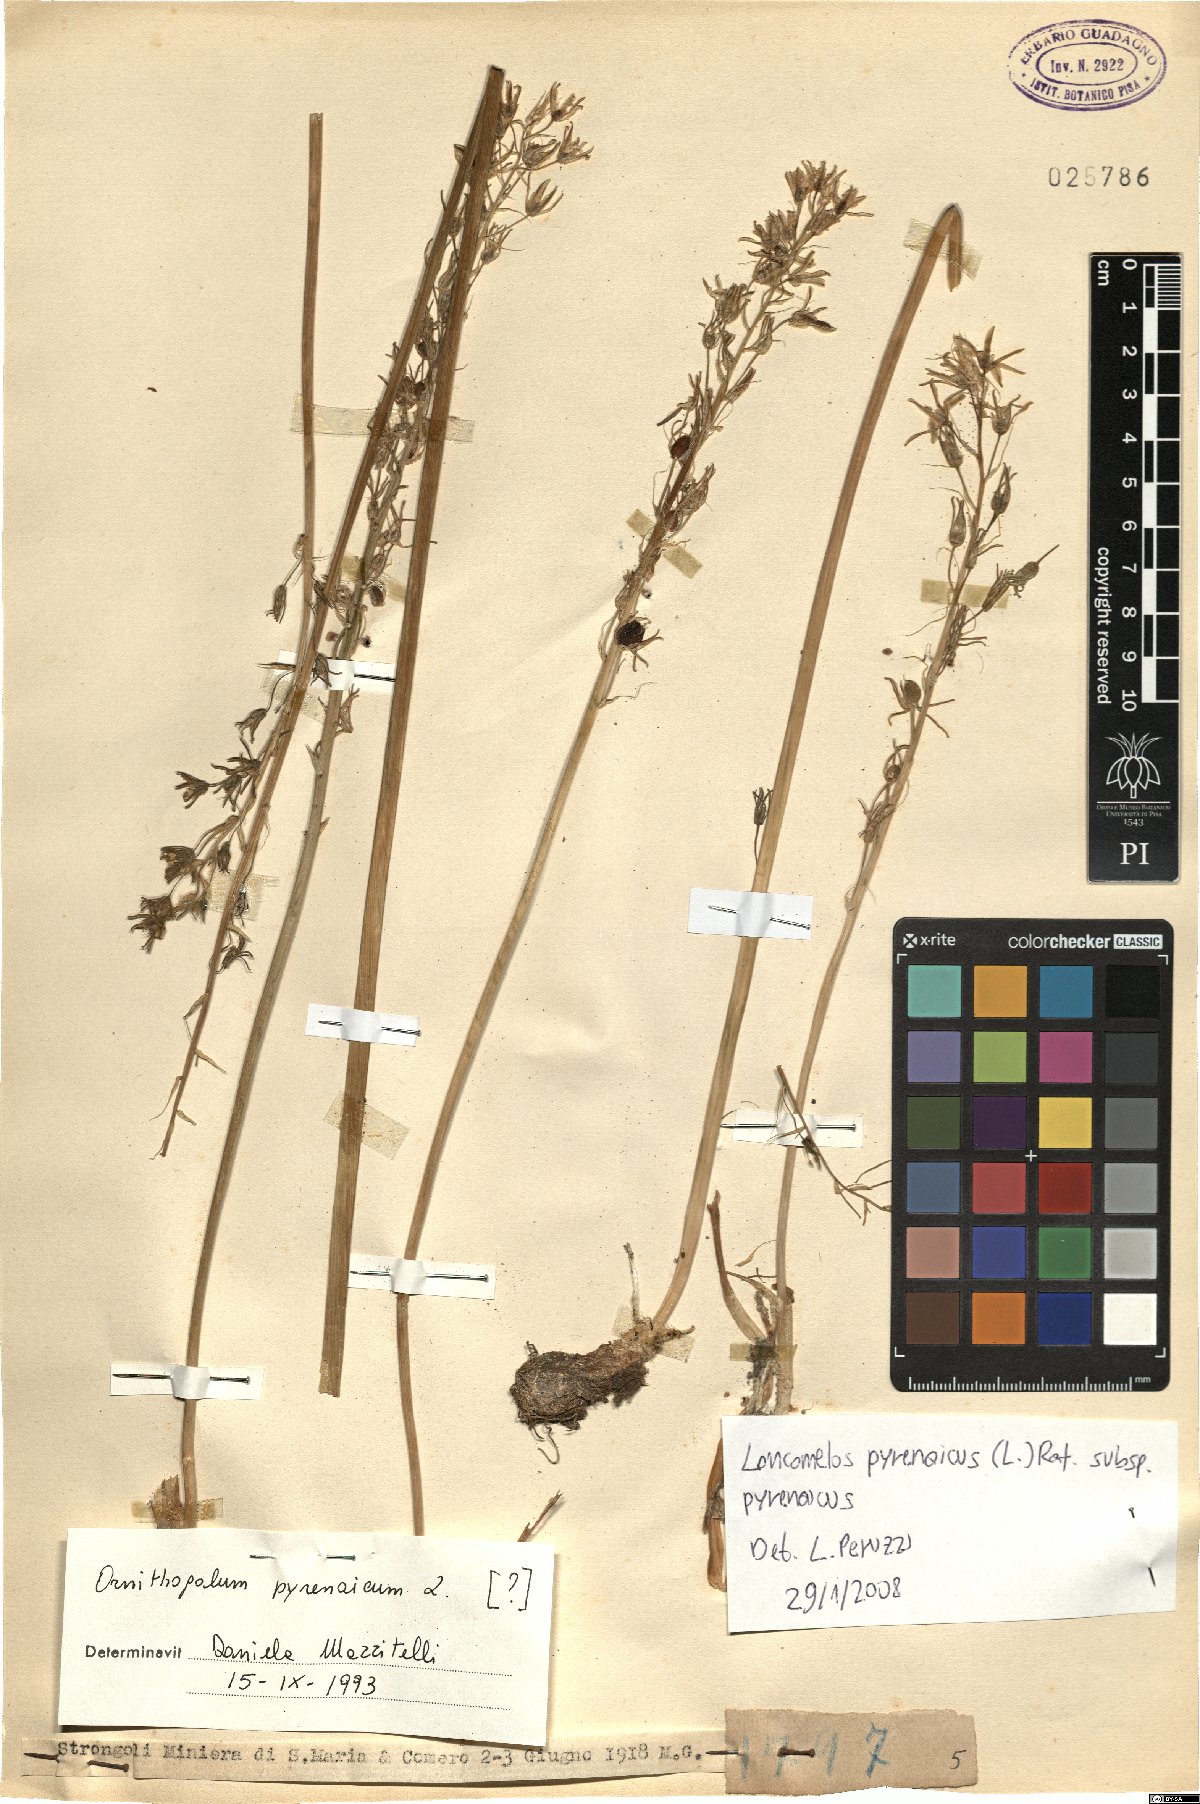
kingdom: Plantae
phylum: Tracheophyta
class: Liliopsida
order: Asparagales
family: Asparagaceae
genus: Ornithogalum
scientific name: Ornithogalum pyrenaicum
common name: Spiked star-of-bethlehem
